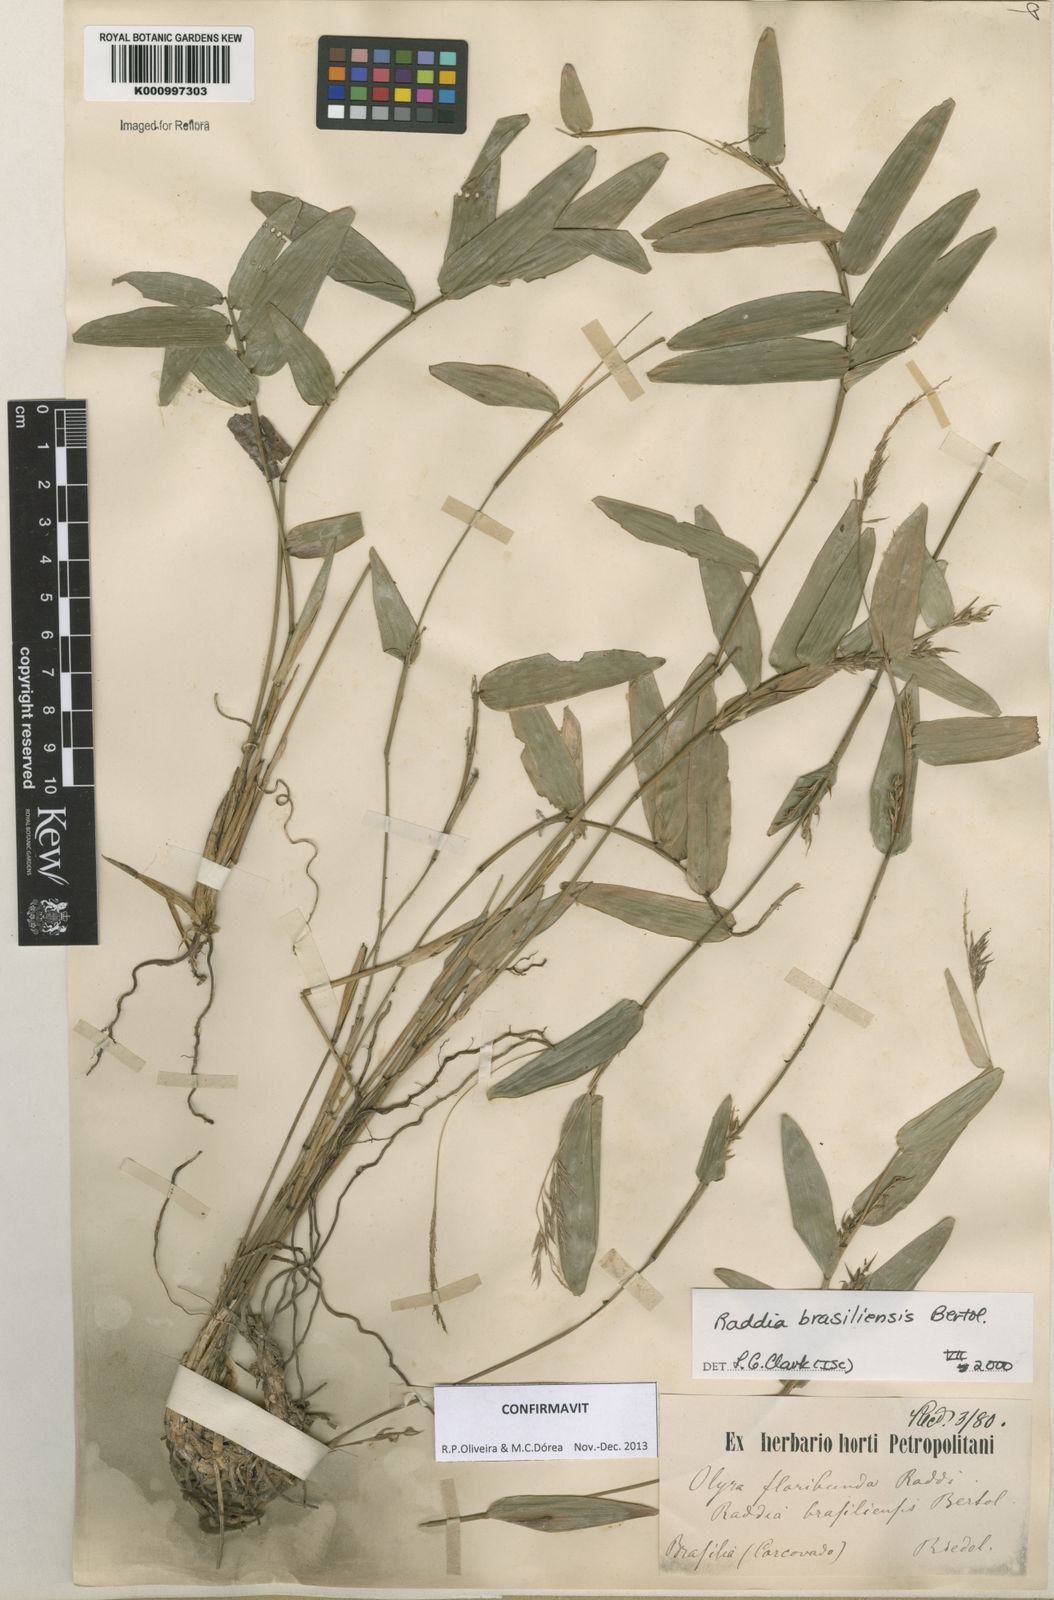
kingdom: Plantae
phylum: Tracheophyta
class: Liliopsida
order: Poales
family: Poaceae
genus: Raddia
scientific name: Raddia brasiliensis
